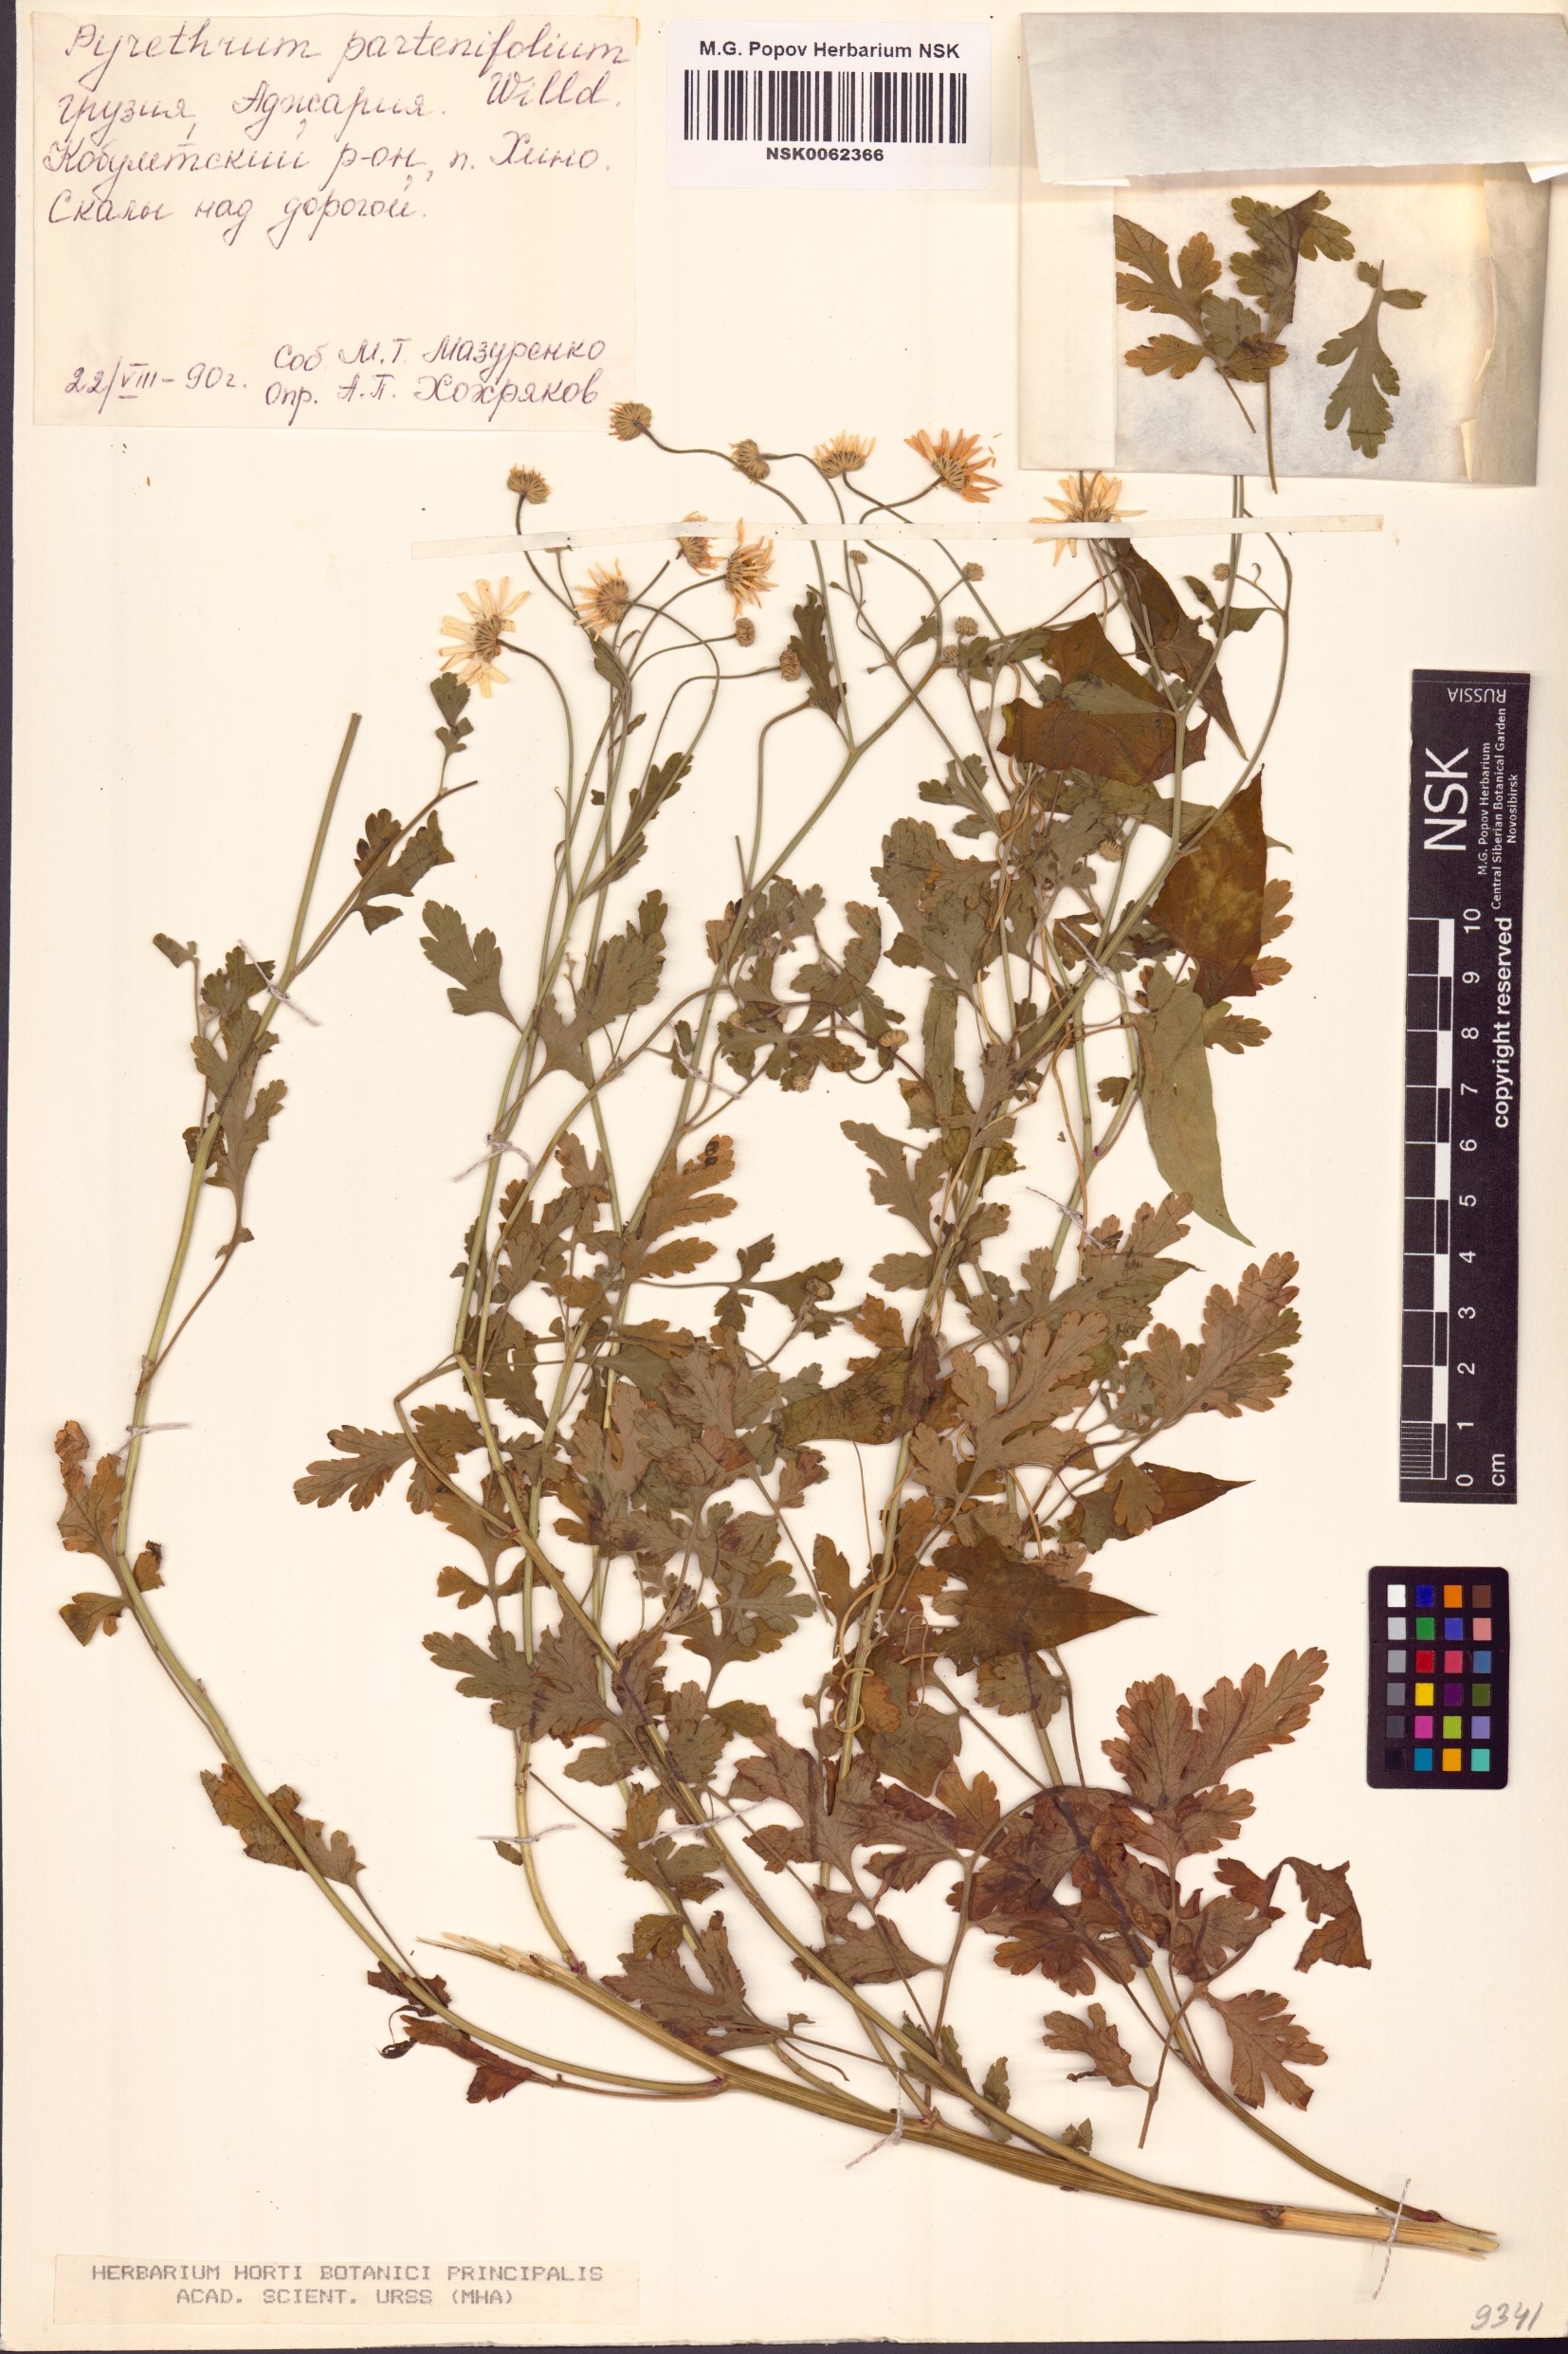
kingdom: Plantae
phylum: Tracheophyta
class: Magnoliopsida
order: Asterales
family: Asteraceae
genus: Tanacetum
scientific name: Tanacetum partheniifolium
